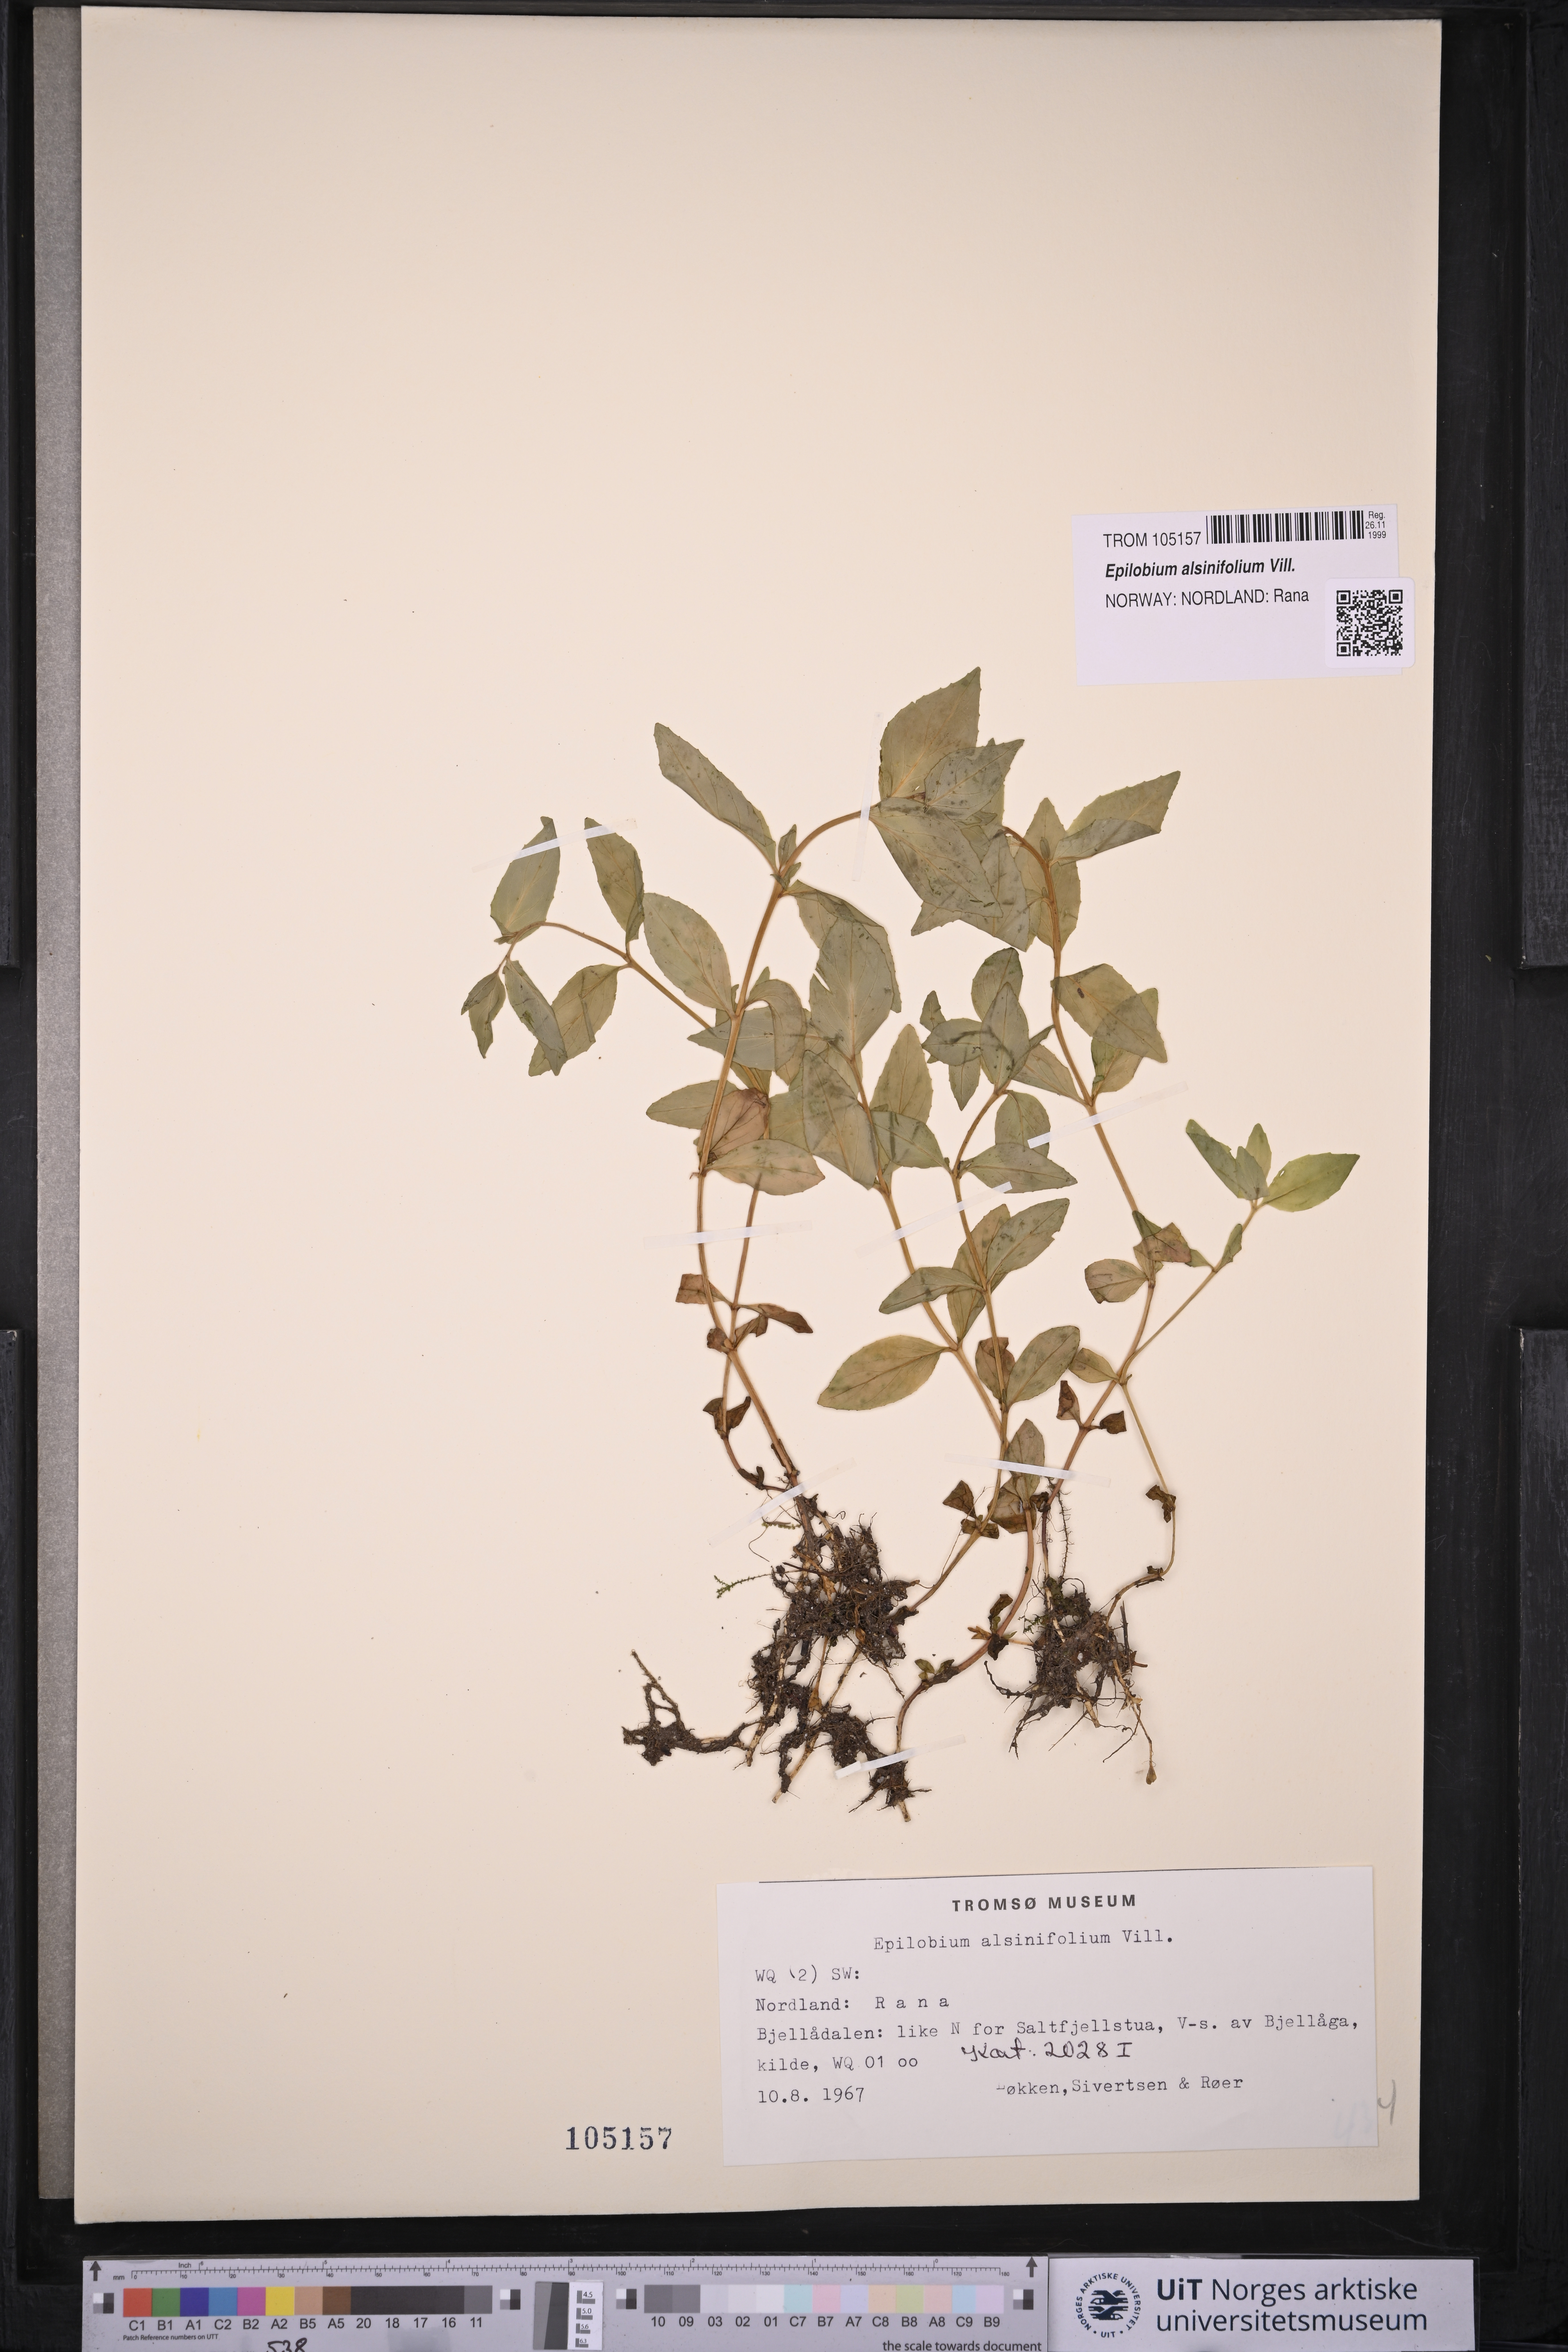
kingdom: Plantae
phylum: Tracheophyta
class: Magnoliopsida
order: Myrtales
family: Onagraceae
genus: Epilobium
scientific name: Epilobium alsinifolium
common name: Chickweed willowherb
